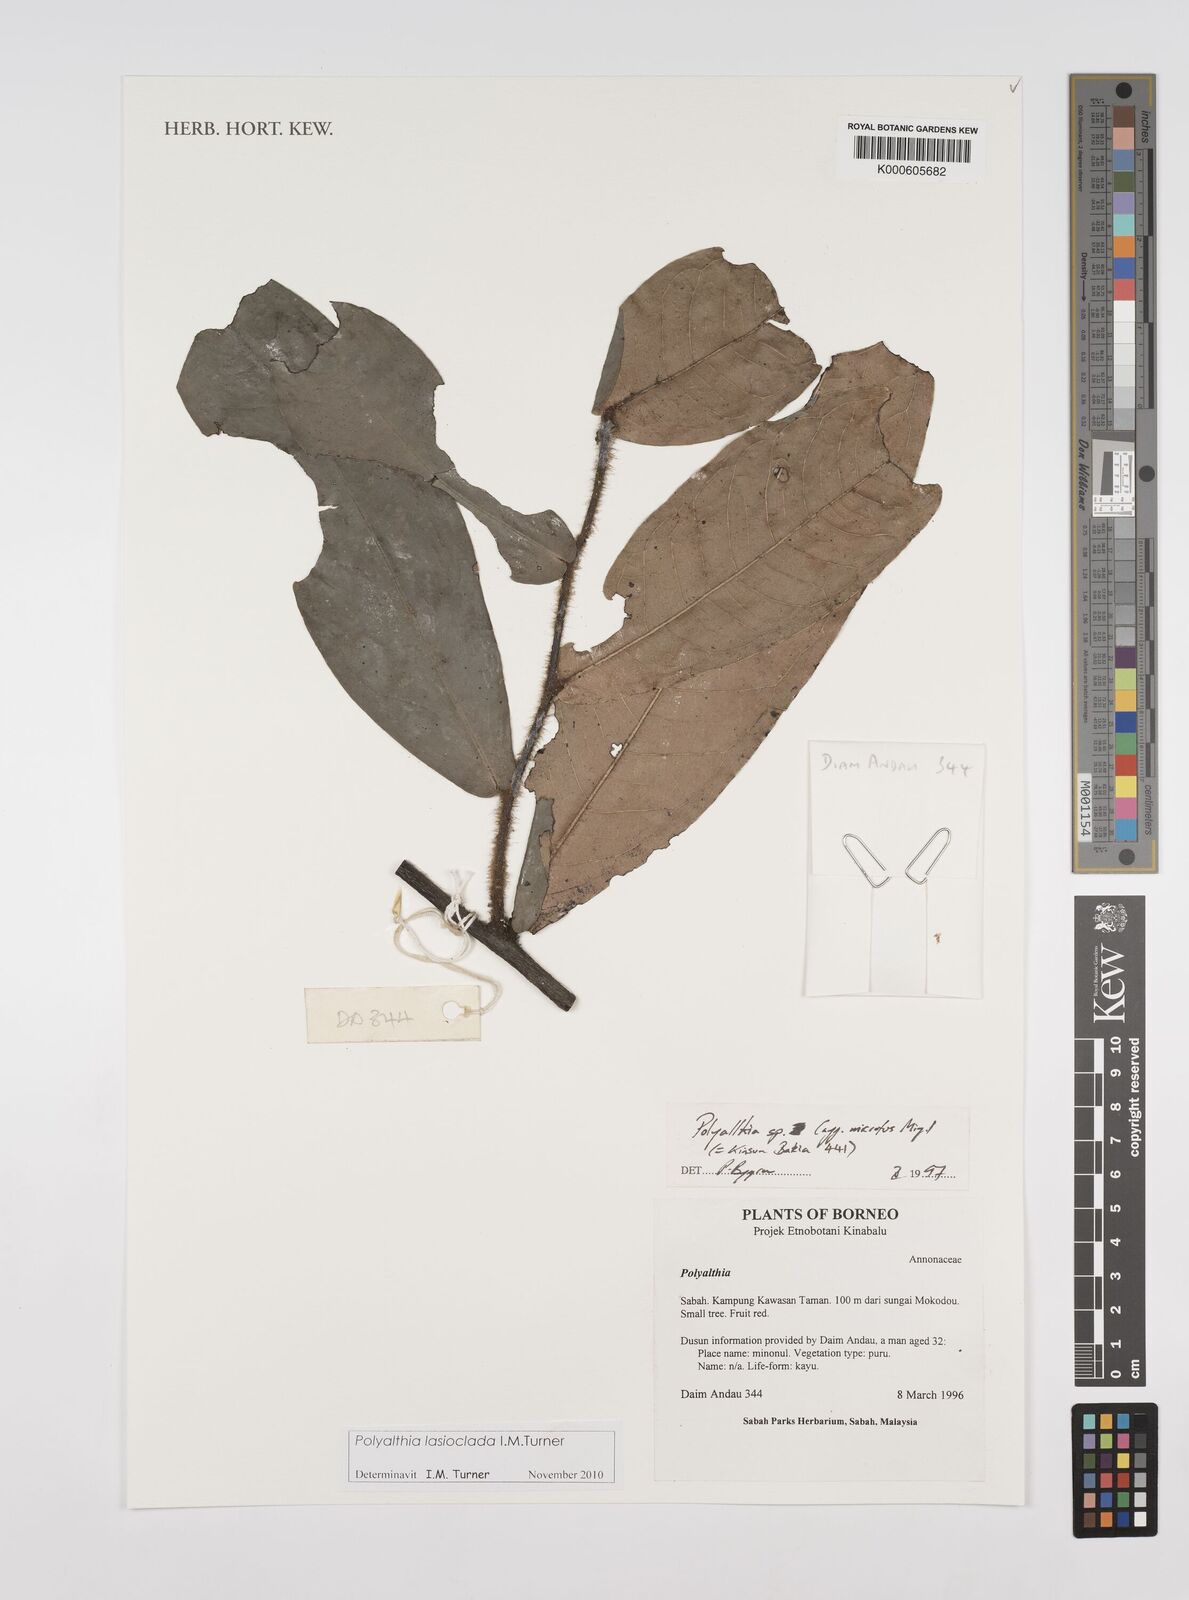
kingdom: Plantae
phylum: Tracheophyta
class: Magnoliopsida
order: Magnoliales
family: Annonaceae
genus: Polyalthia
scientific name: Polyalthia
